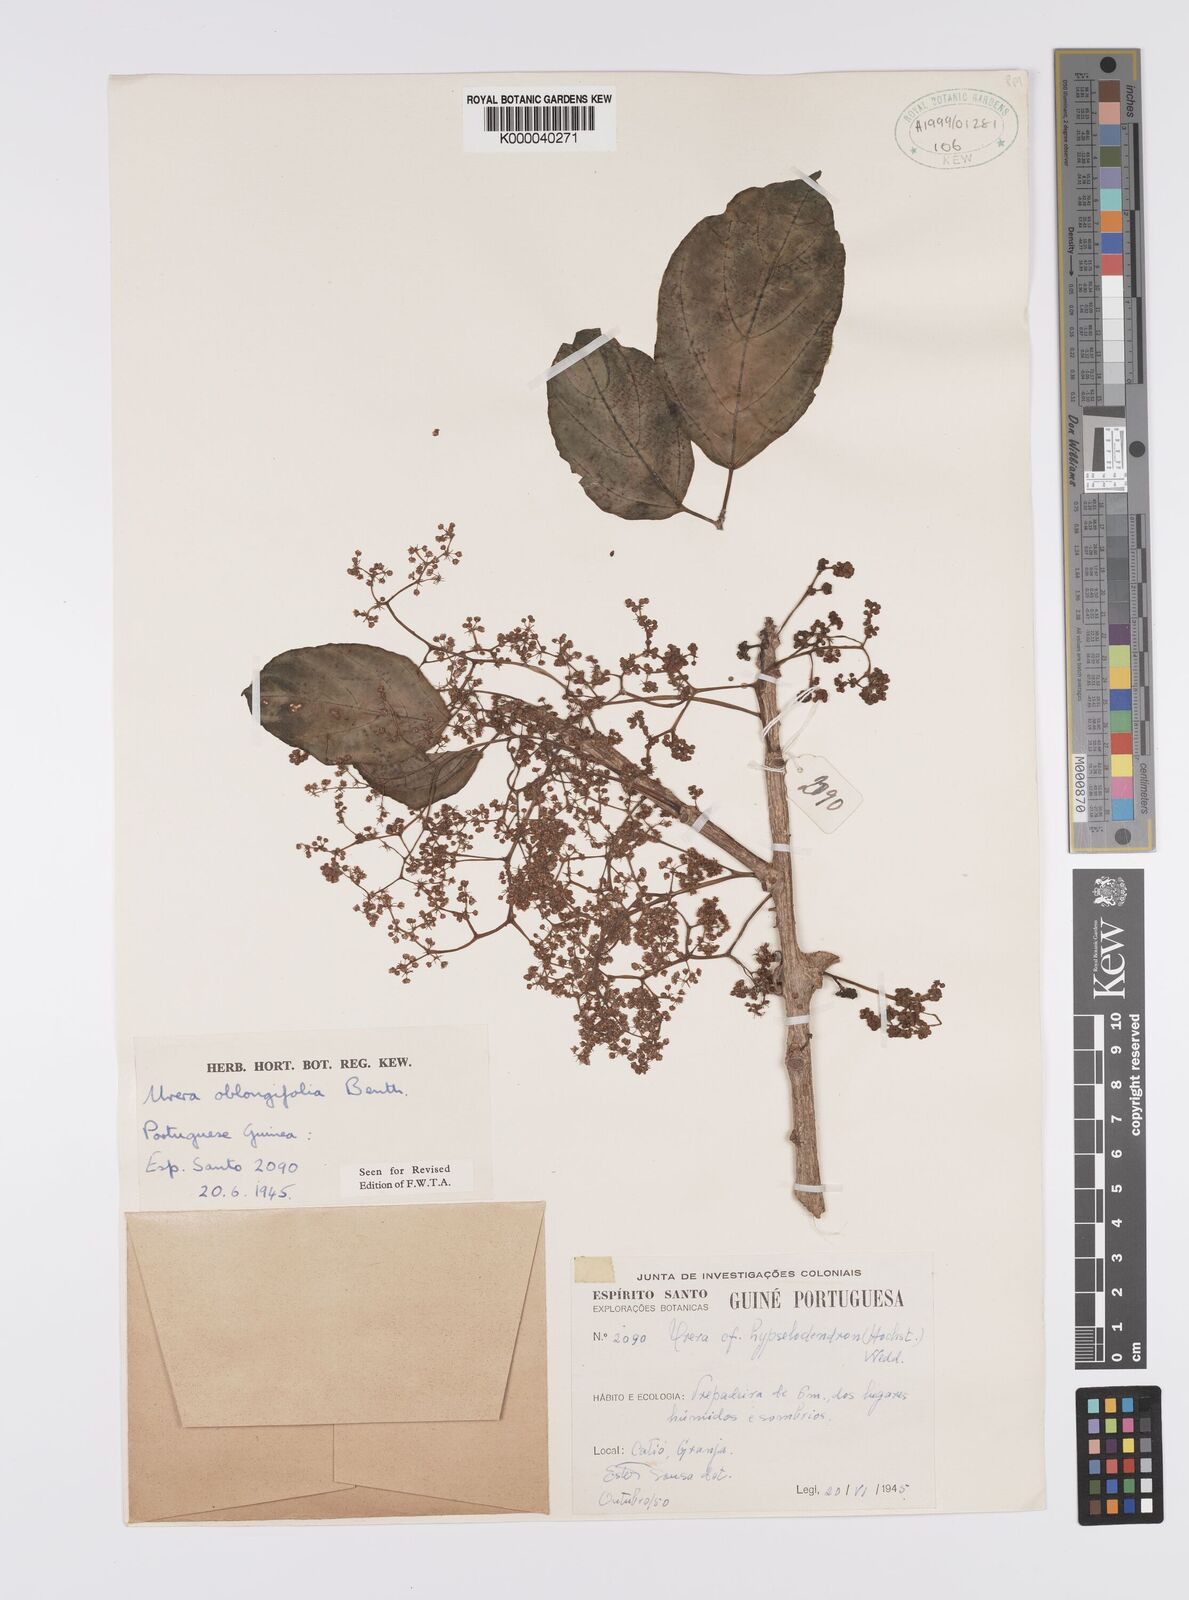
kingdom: Plantae
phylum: Tracheophyta
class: Magnoliopsida
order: Rosales
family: Urticaceae
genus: Scepocarpus
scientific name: Scepocarpus oblongifolius
